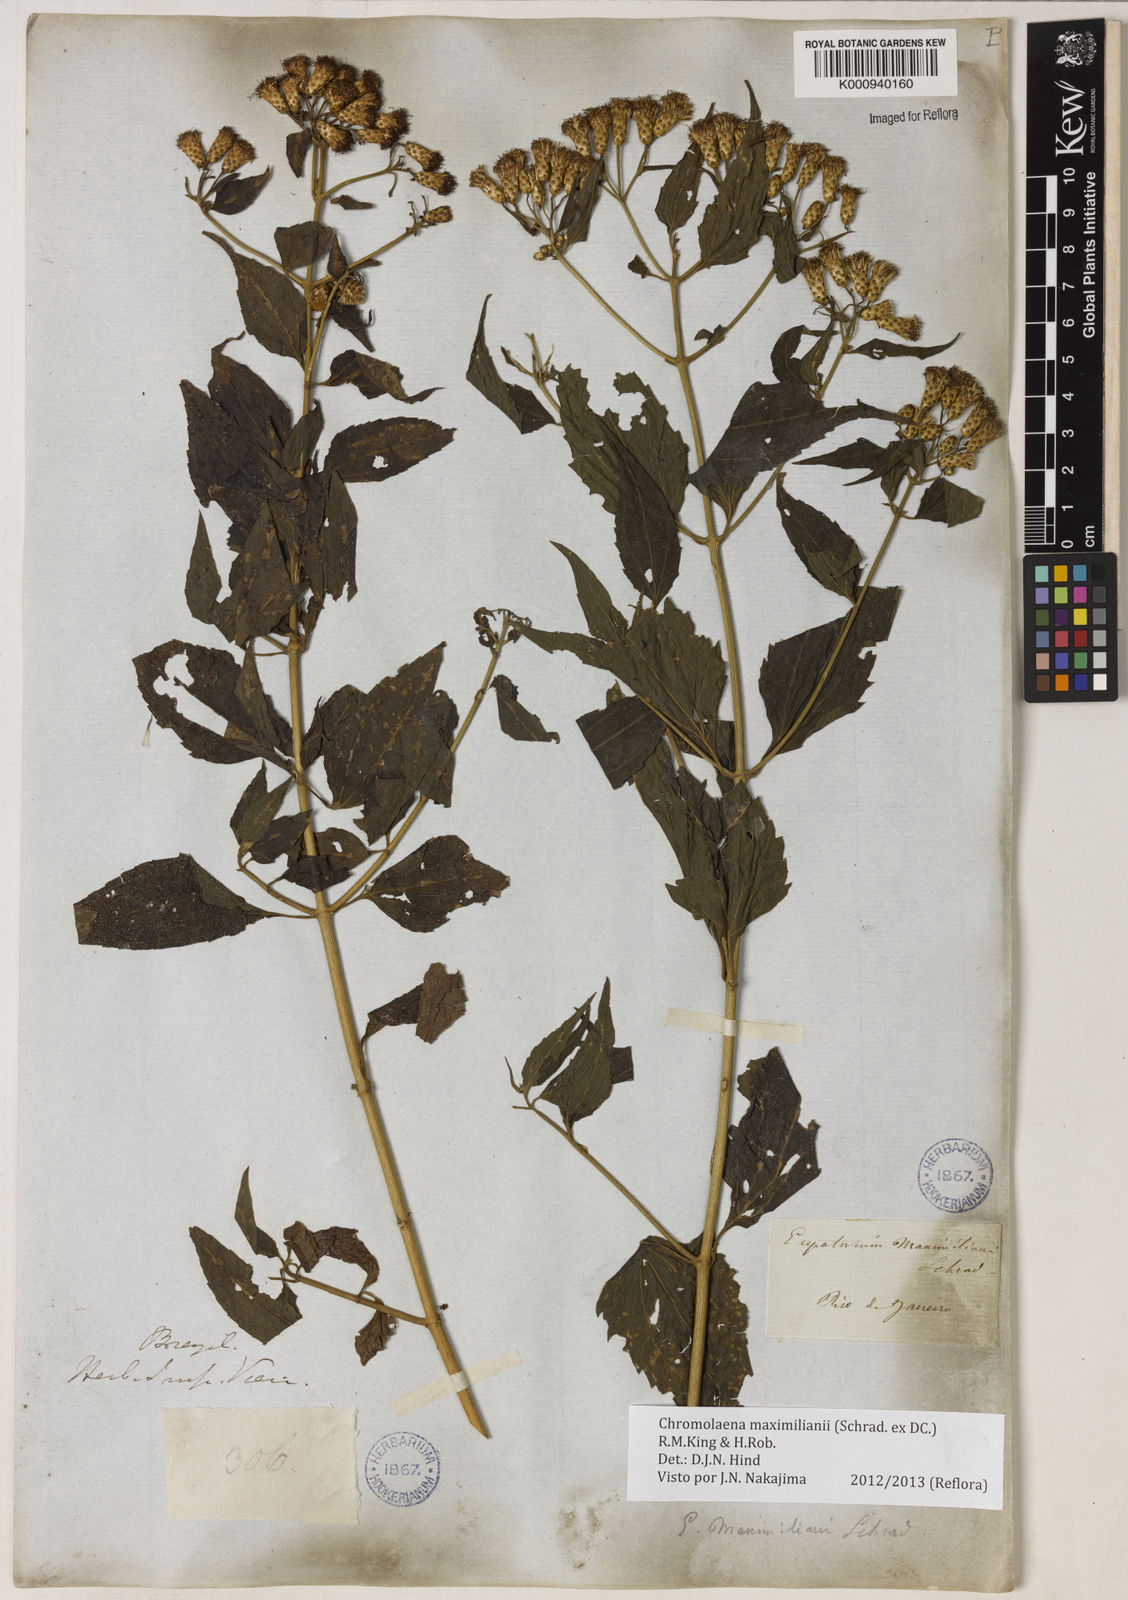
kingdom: Plantae
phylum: Tracheophyta
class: Magnoliopsida
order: Asterales
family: Asteraceae
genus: Chromolaena
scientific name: Chromolaena maximiliani
